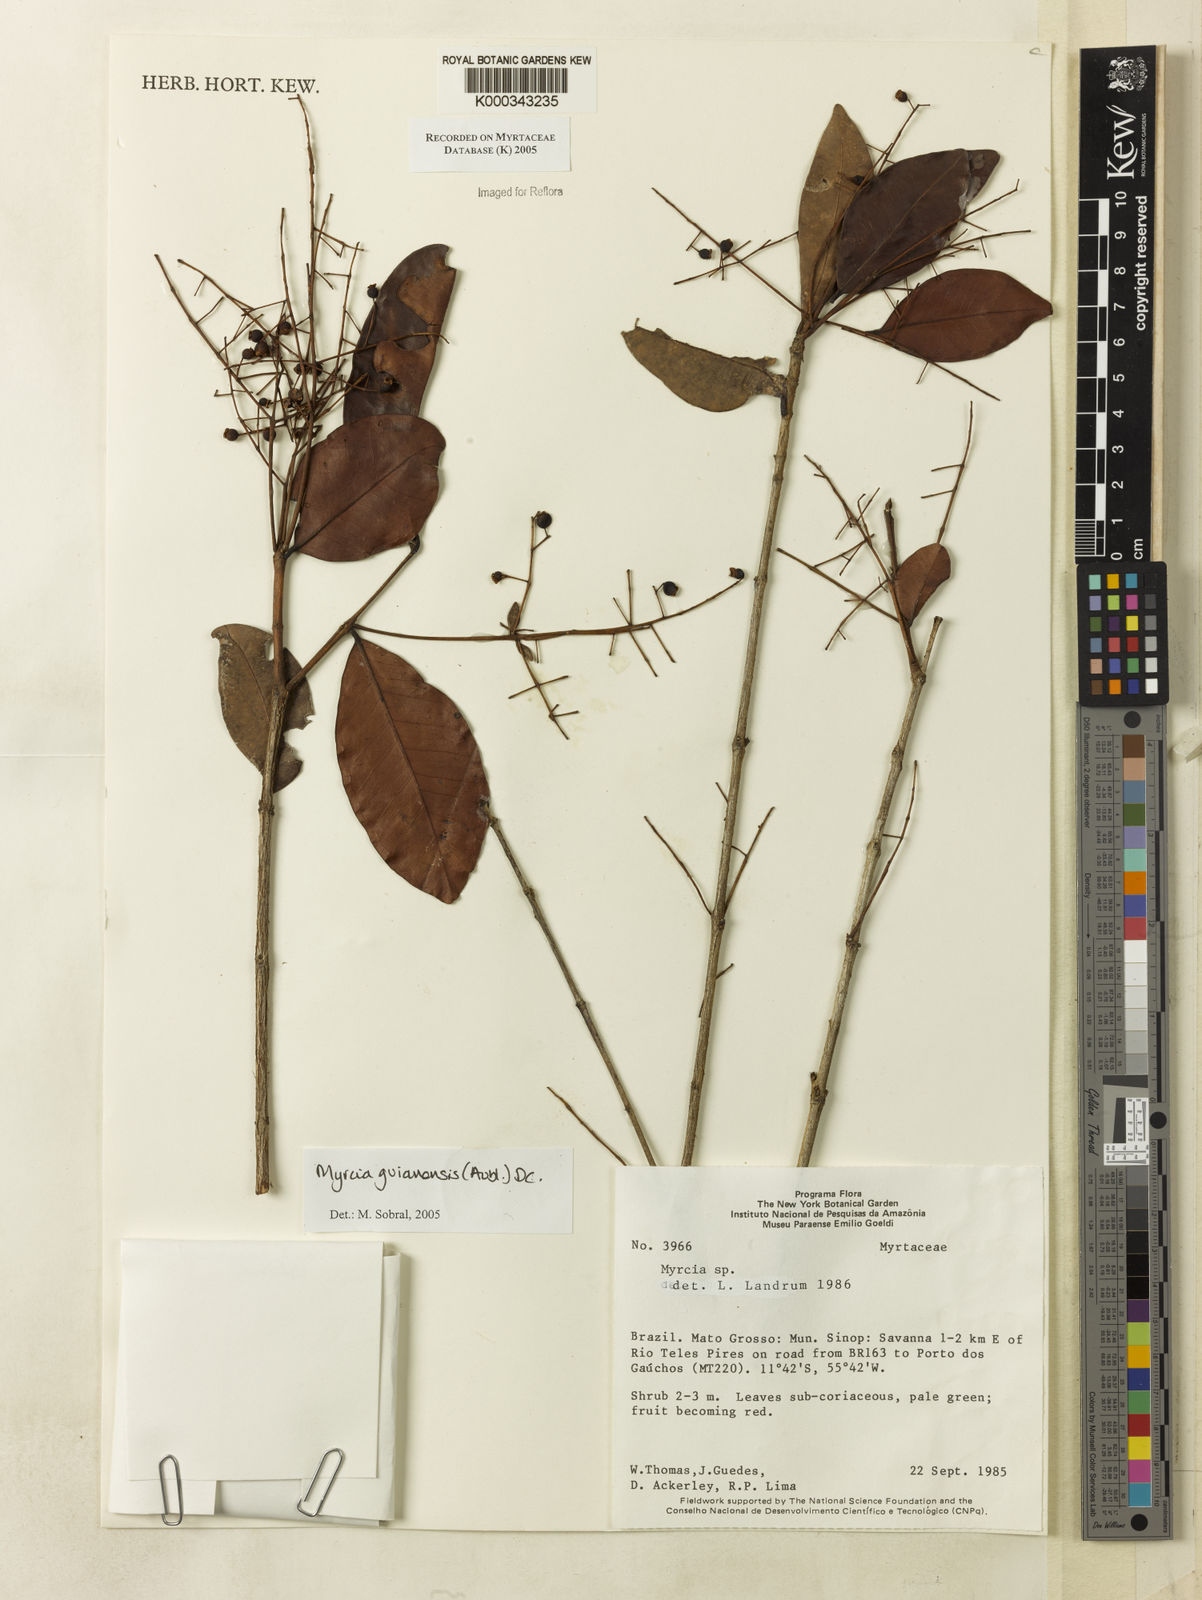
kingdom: Plantae
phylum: Tracheophyta
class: Magnoliopsida
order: Myrtales
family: Myrtaceae
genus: Myrcia
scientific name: Myrcia guianensis
